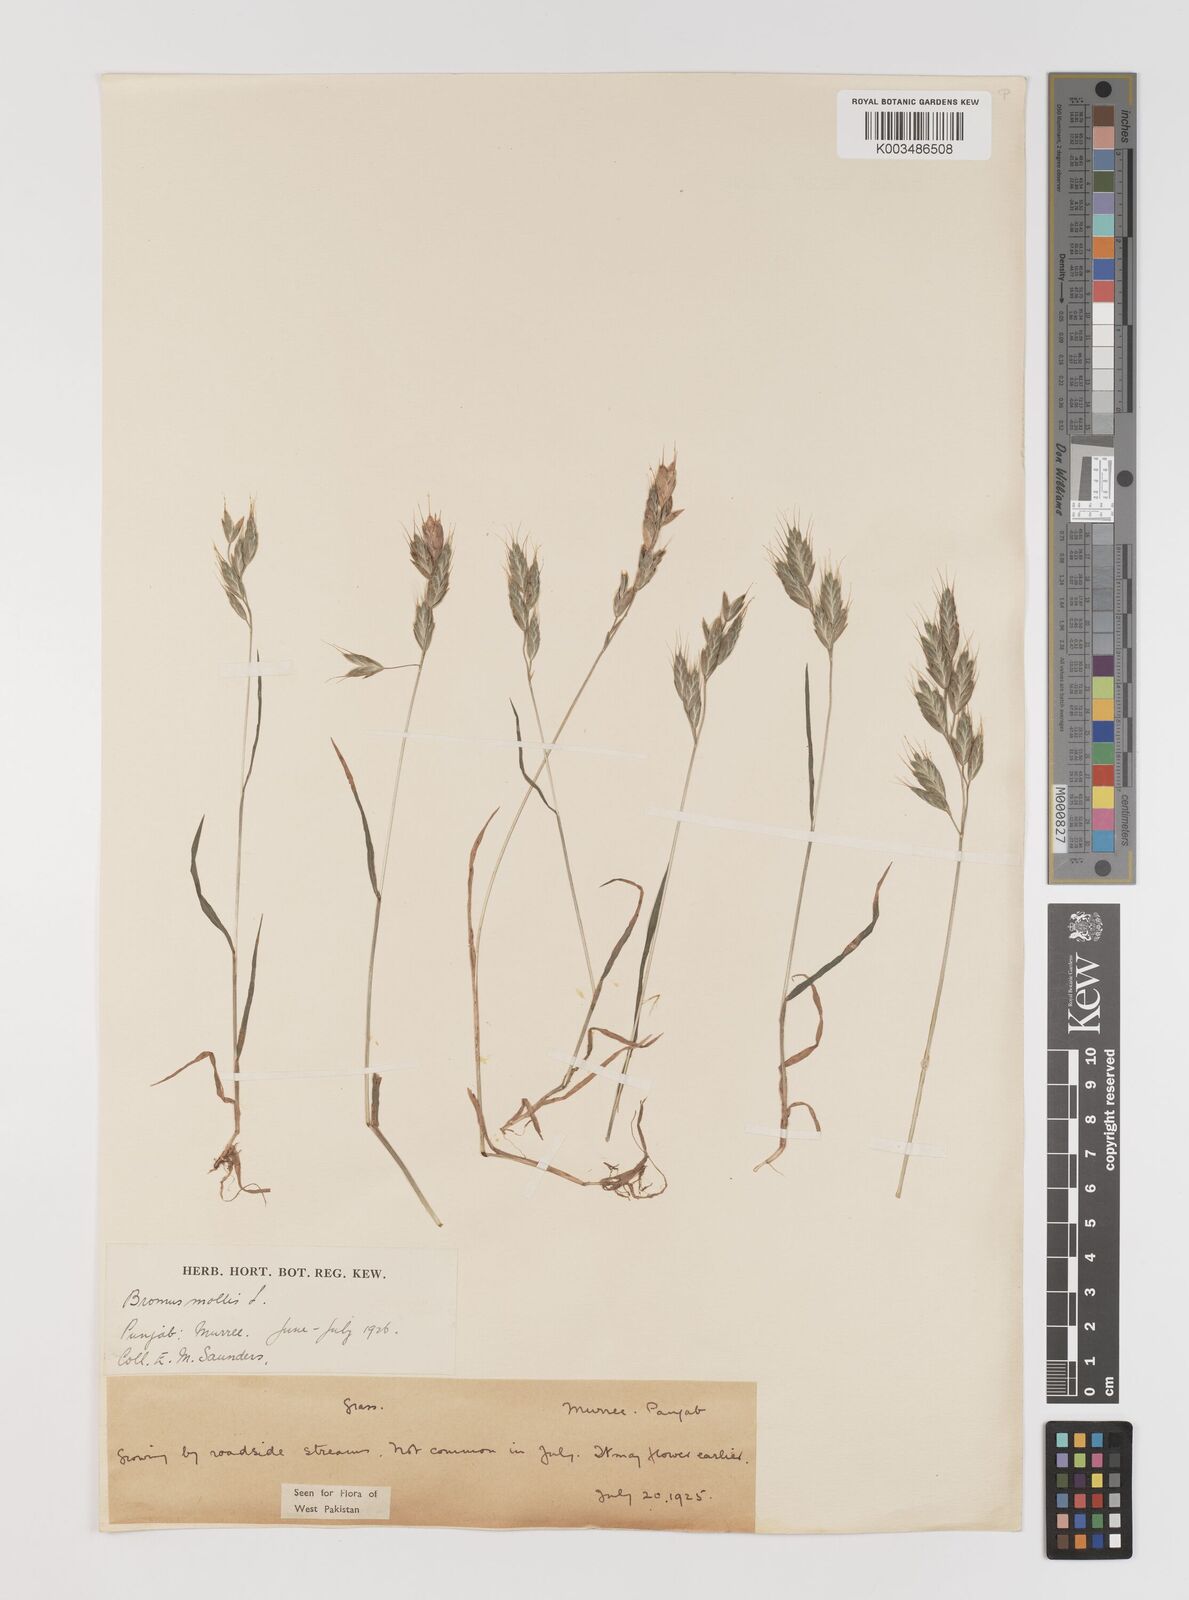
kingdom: Plantae
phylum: Tracheophyta
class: Liliopsida
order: Poales
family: Poaceae
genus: Bromus
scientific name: Bromus hordeaceus
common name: Soft brome
